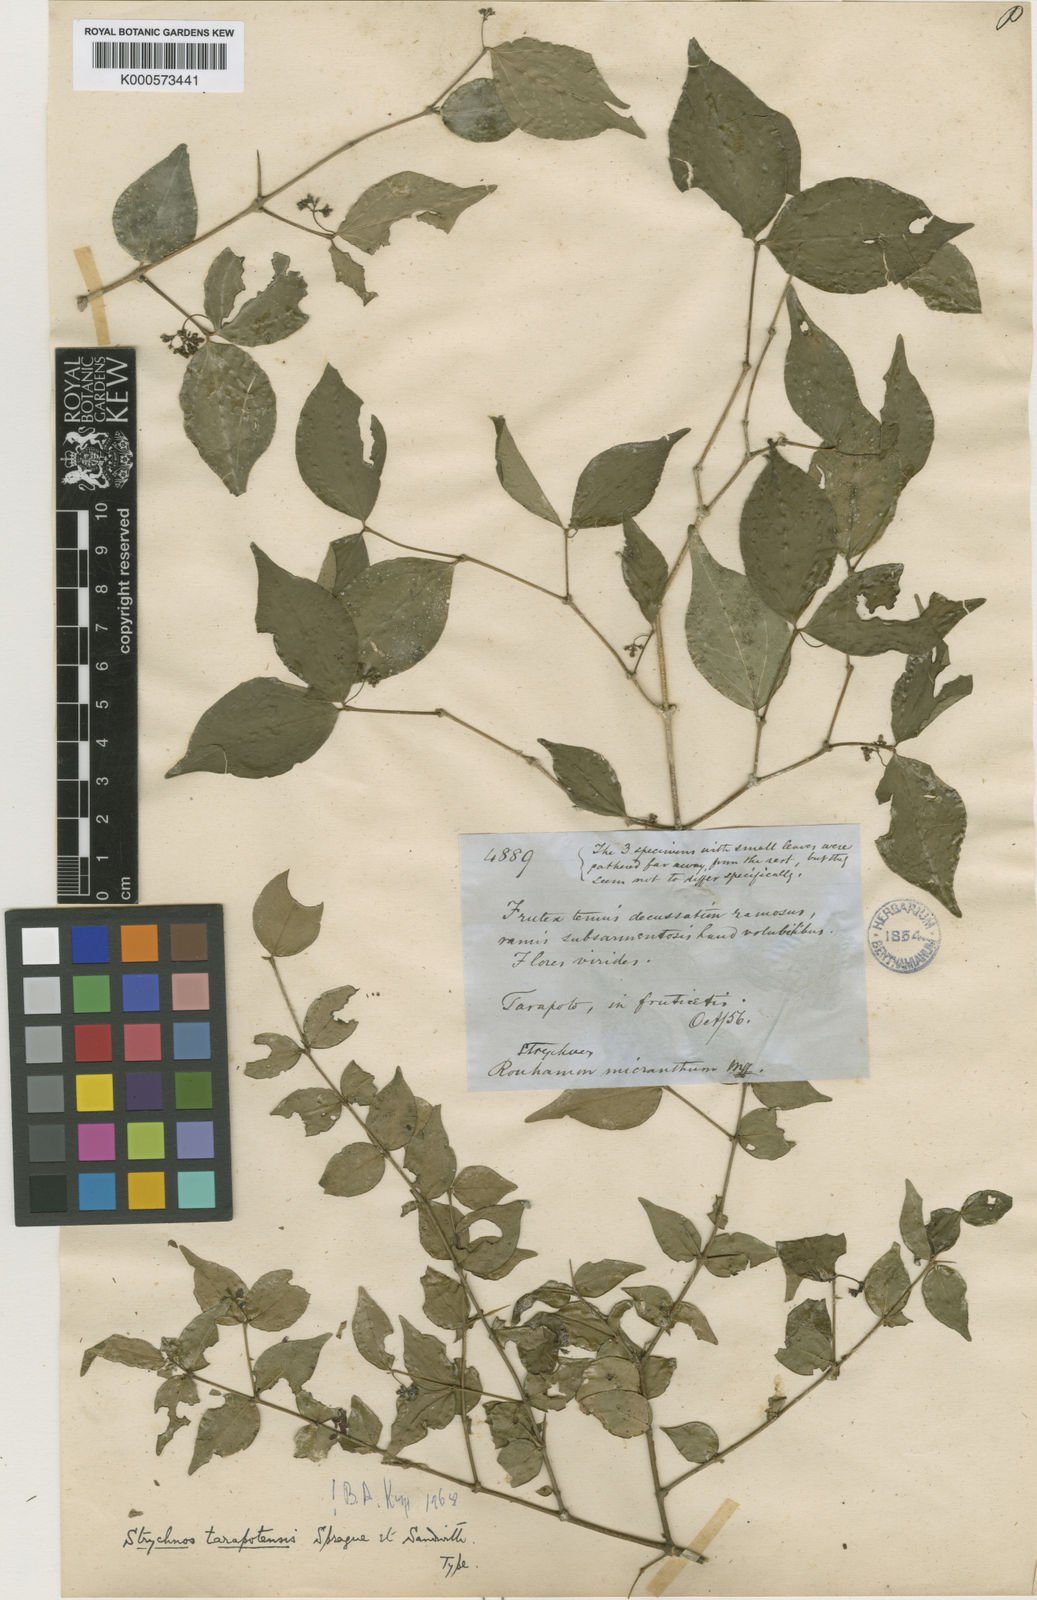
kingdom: Plantae
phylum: Tracheophyta
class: Magnoliopsida
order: Gentianales
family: Loganiaceae
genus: Strychnos
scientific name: Strychnos tarapotensis
